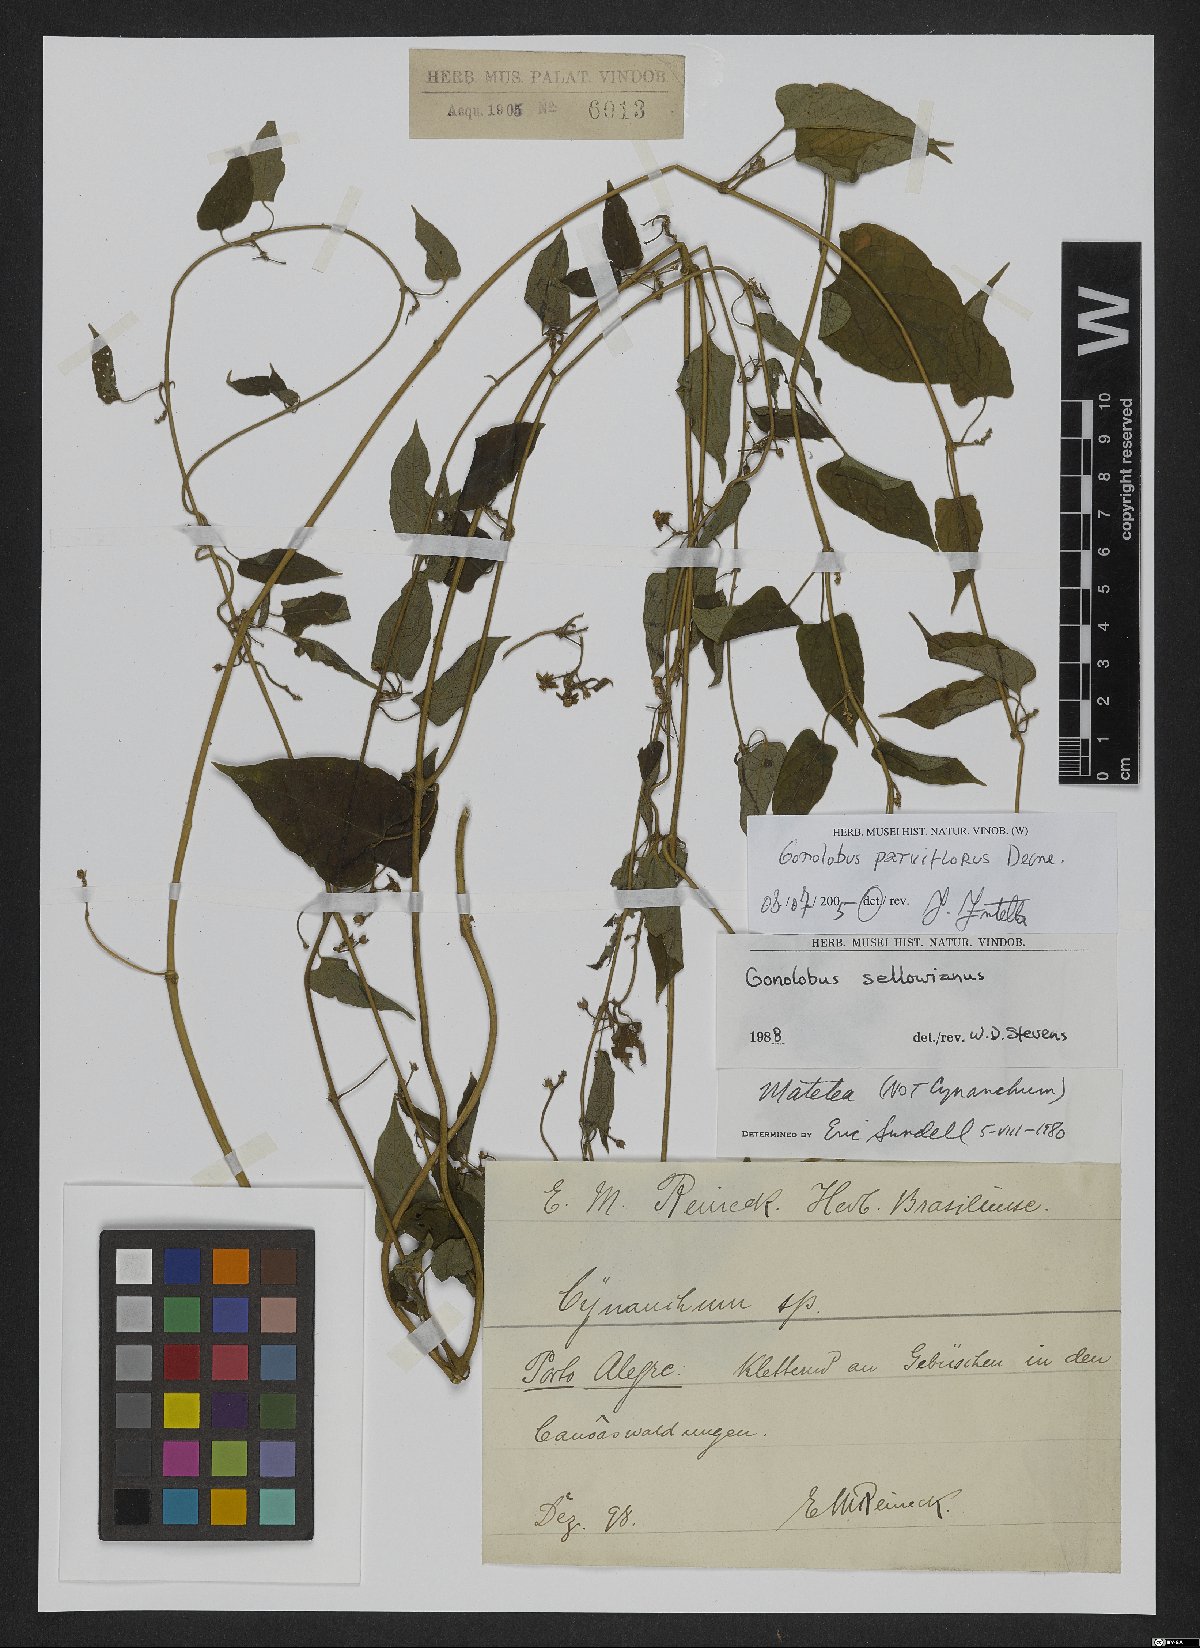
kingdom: Plantae
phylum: Tracheophyta
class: Magnoliopsida
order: Gentianales
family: Apocynaceae
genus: Gonolobus
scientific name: Gonolobus parviflorus
